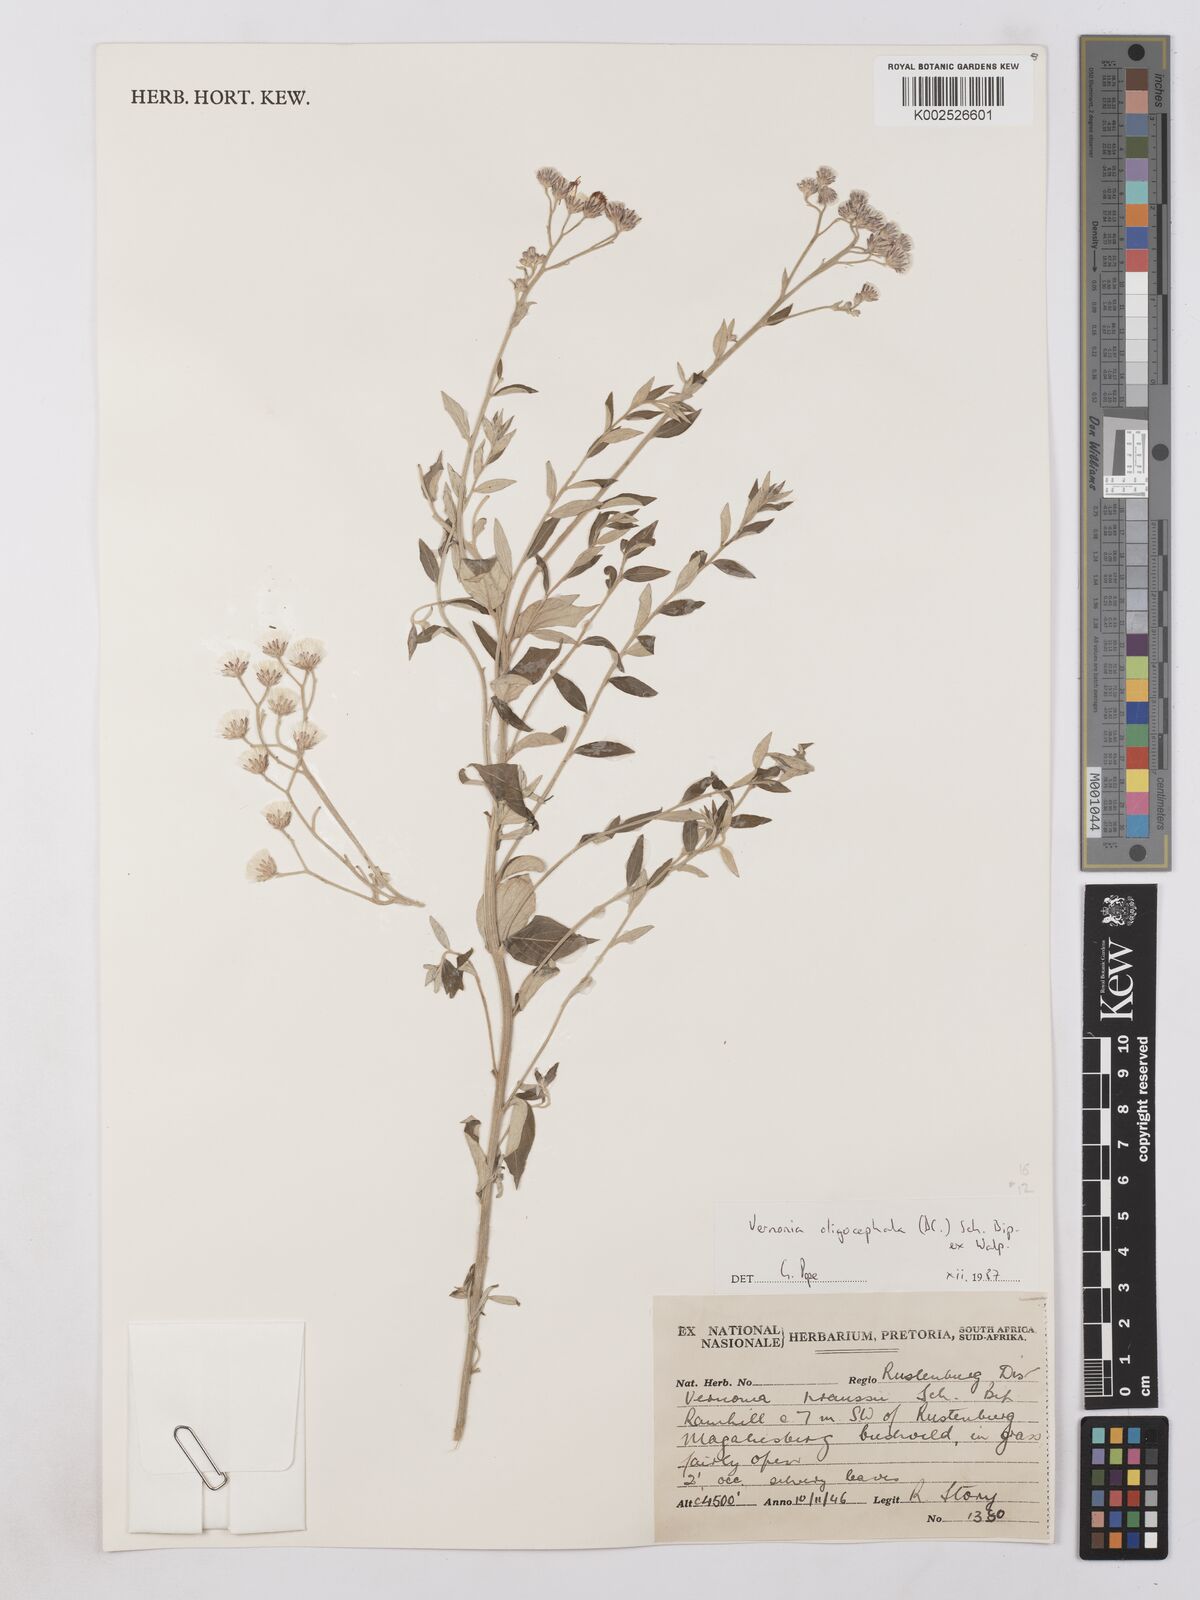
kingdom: Plantae
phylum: Tracheophyta
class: Magnoliopsida
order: Asterales
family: Asteraceae
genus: Lepidaploa
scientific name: Lepidaploa aurea
